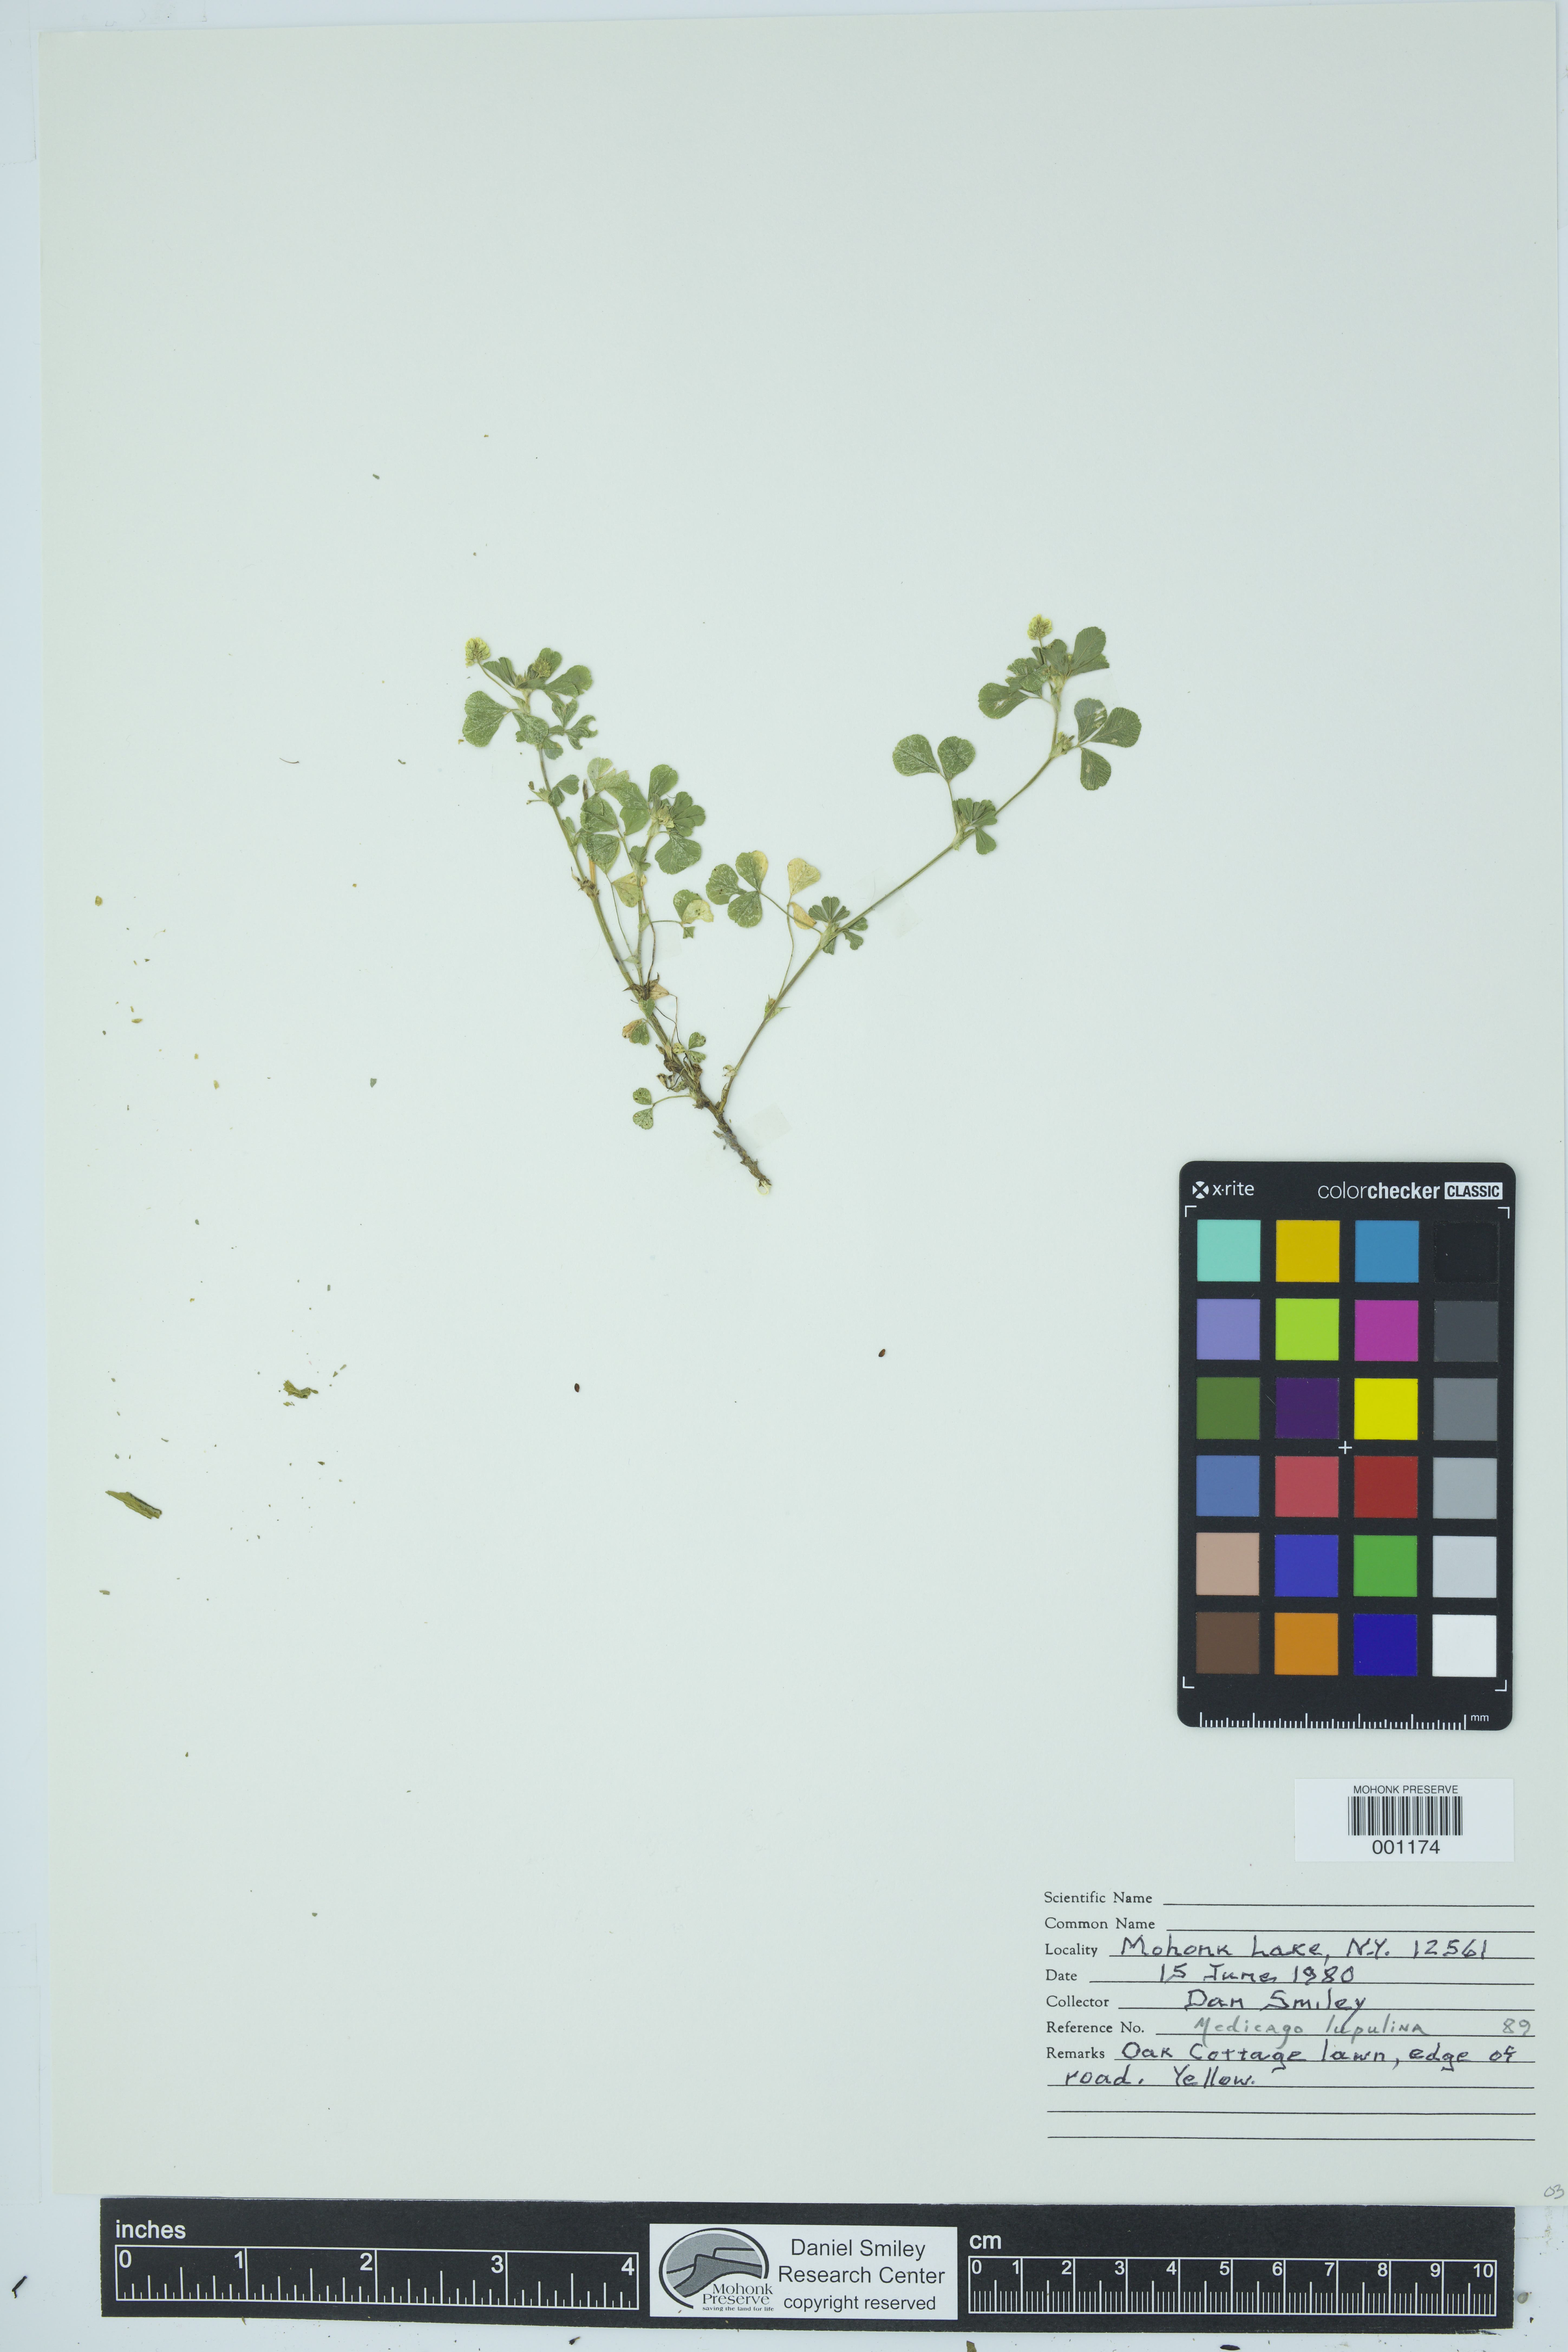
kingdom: Plantae
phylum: Tracheophyta
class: Magnoliopsida
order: Fabales
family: Fabaceae
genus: Medicago
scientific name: Medicago lupulina
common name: Black medick
